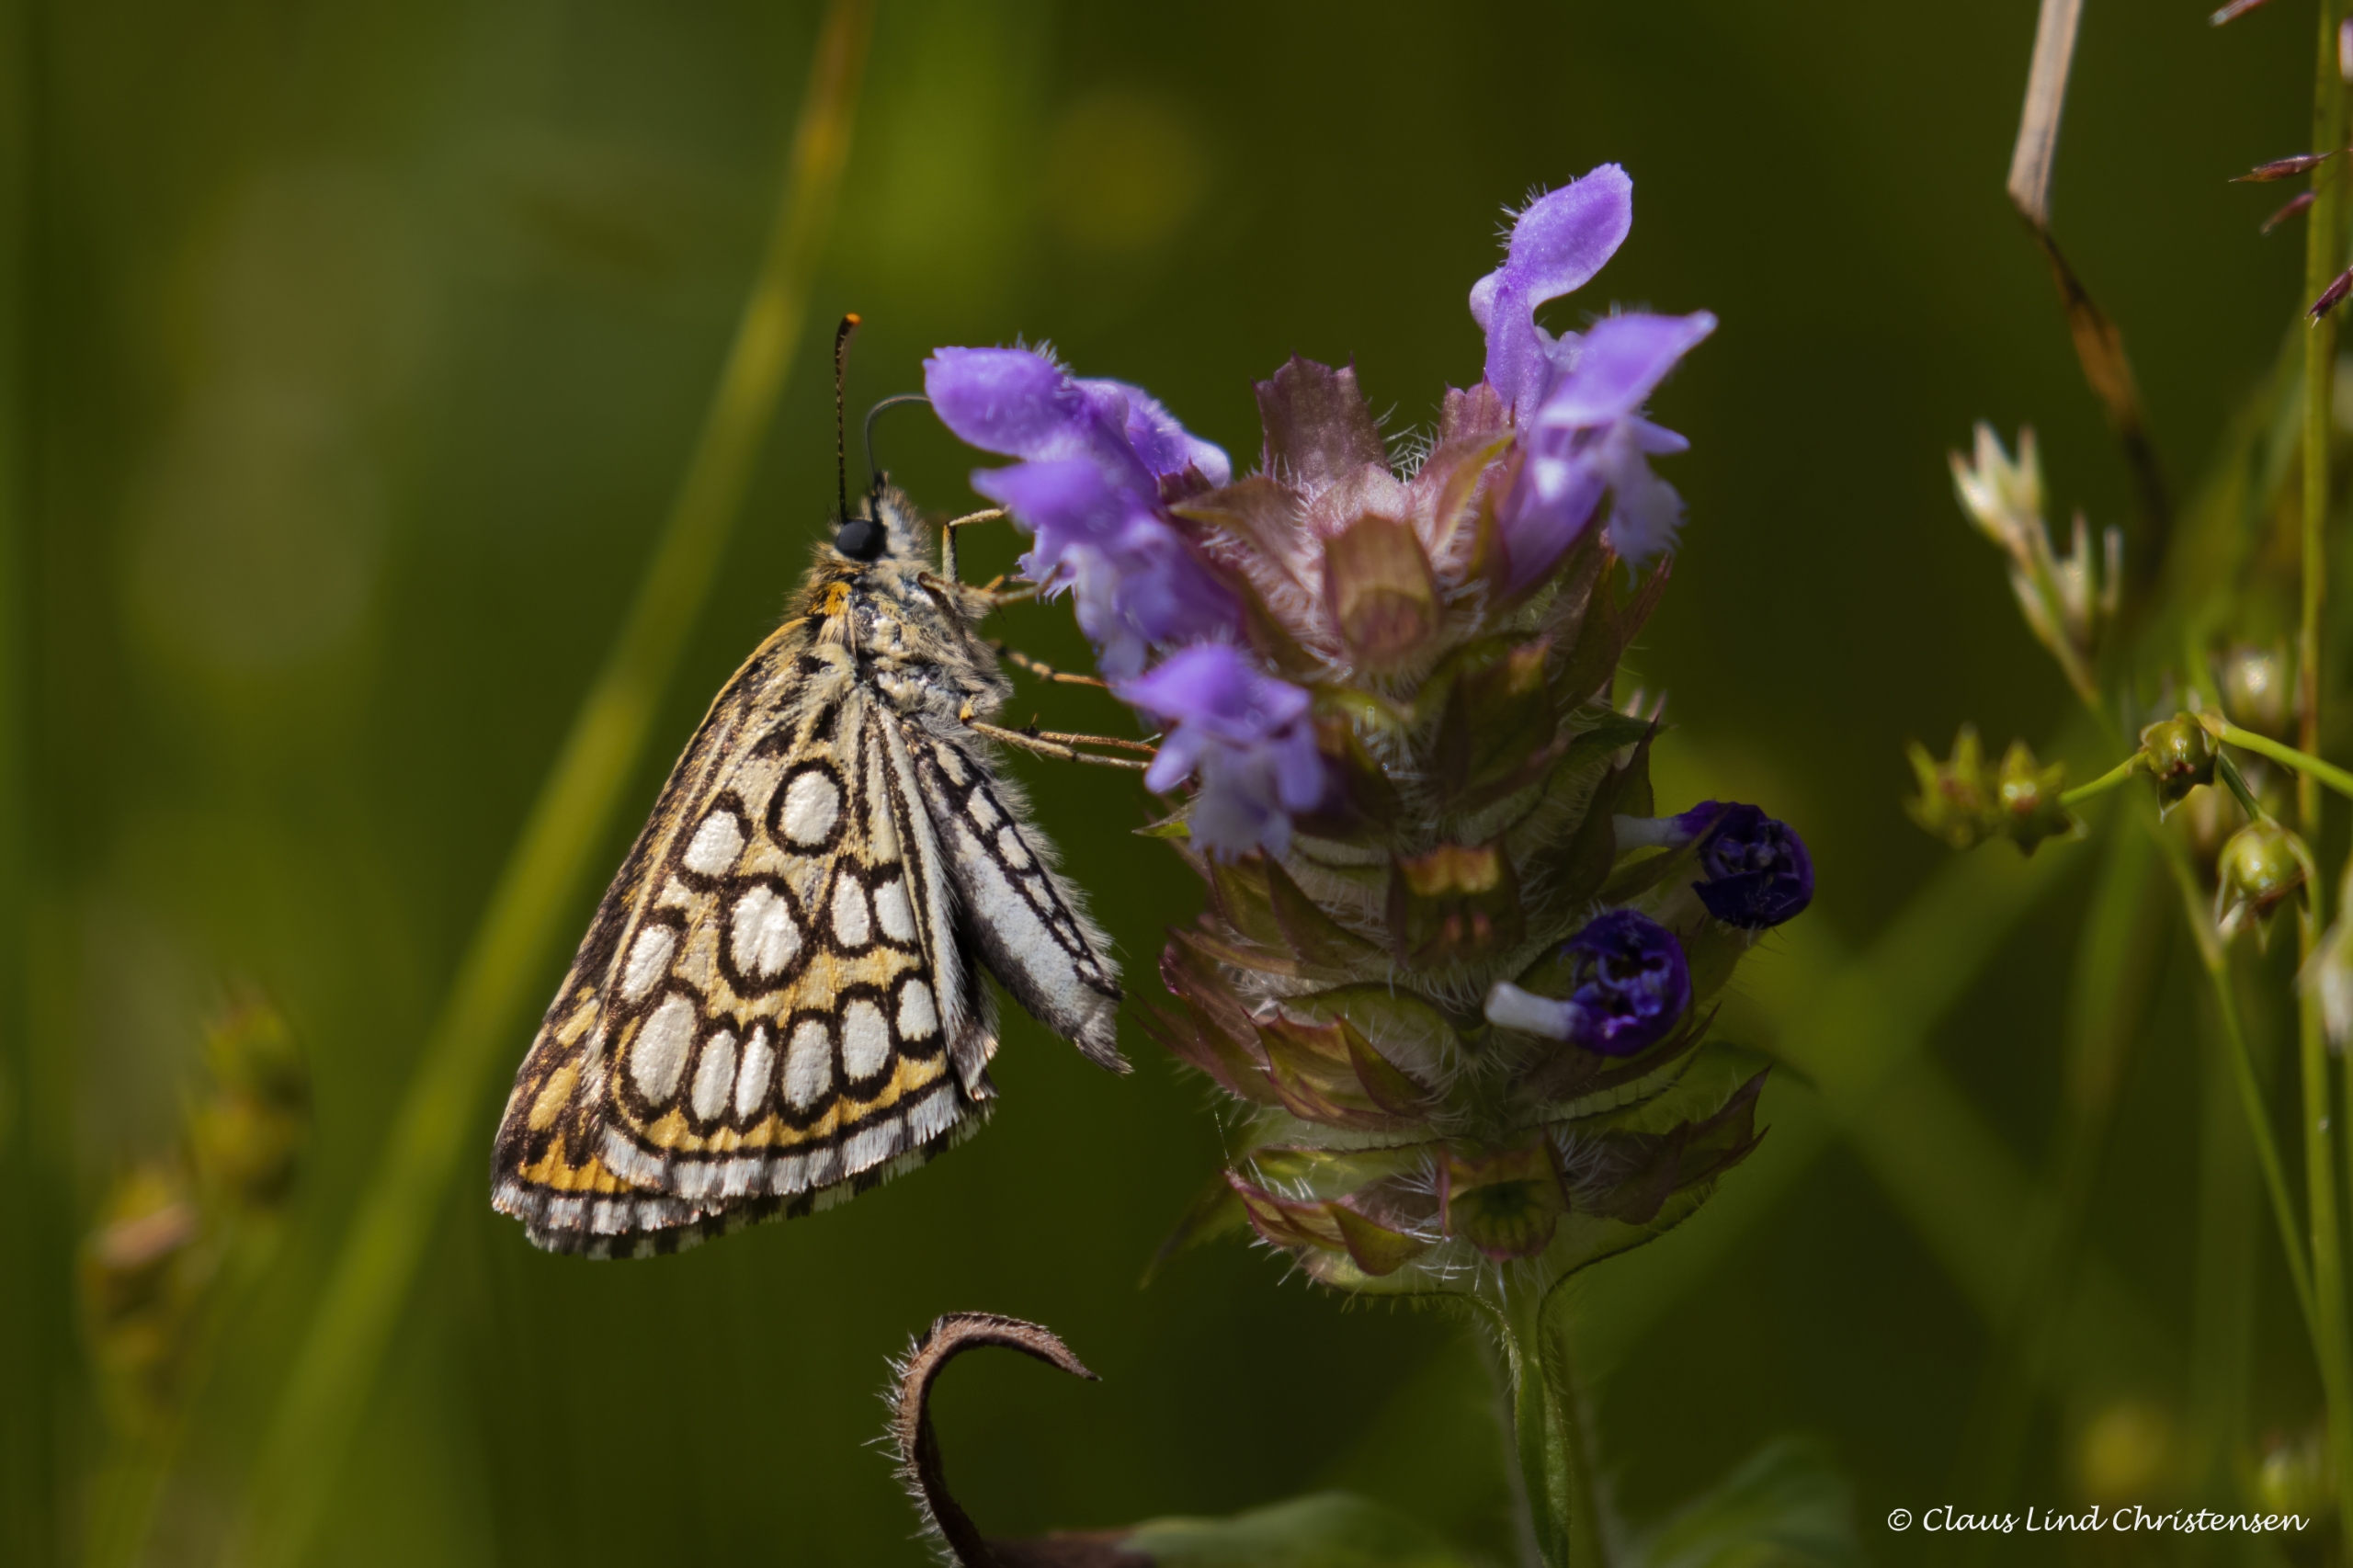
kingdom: Animalia
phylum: Arthropoda
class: Insecta
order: Lepidoptera
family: Hesperiidae
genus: Heteropterus
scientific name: Heteropterus morpheus
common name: Spejlbredpande
